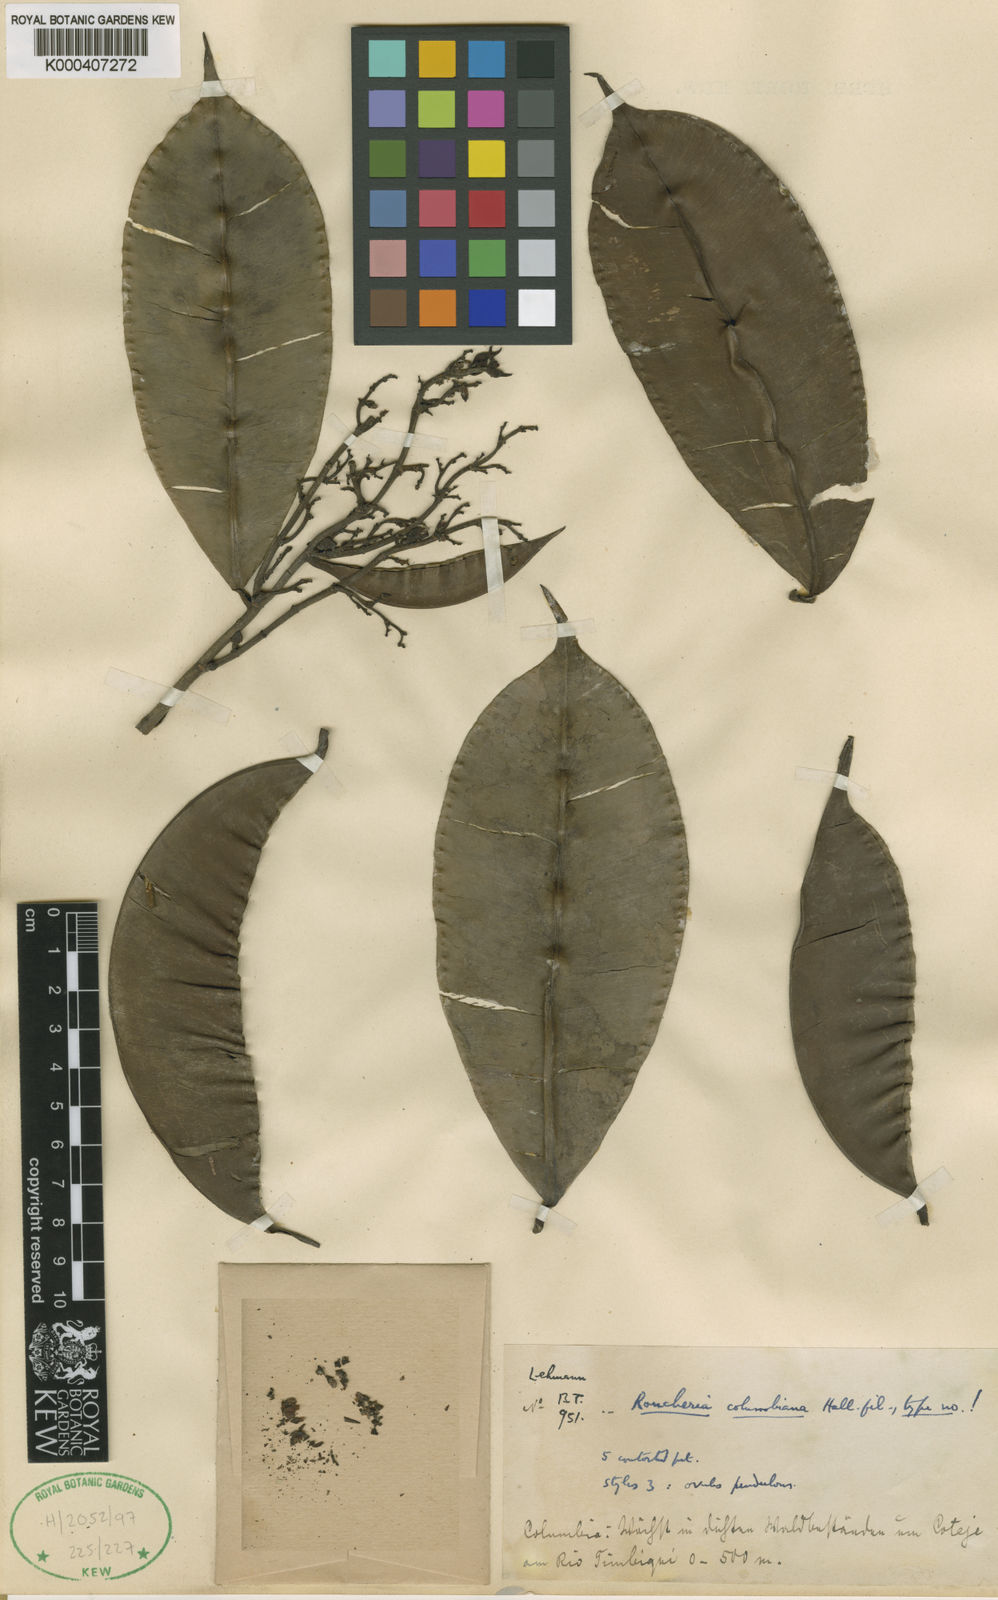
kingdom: Plantae
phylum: Tracheophyta
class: Magnoliopsida
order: Malpighiales
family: Linaceae
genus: Roucheria
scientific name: Roucheria
